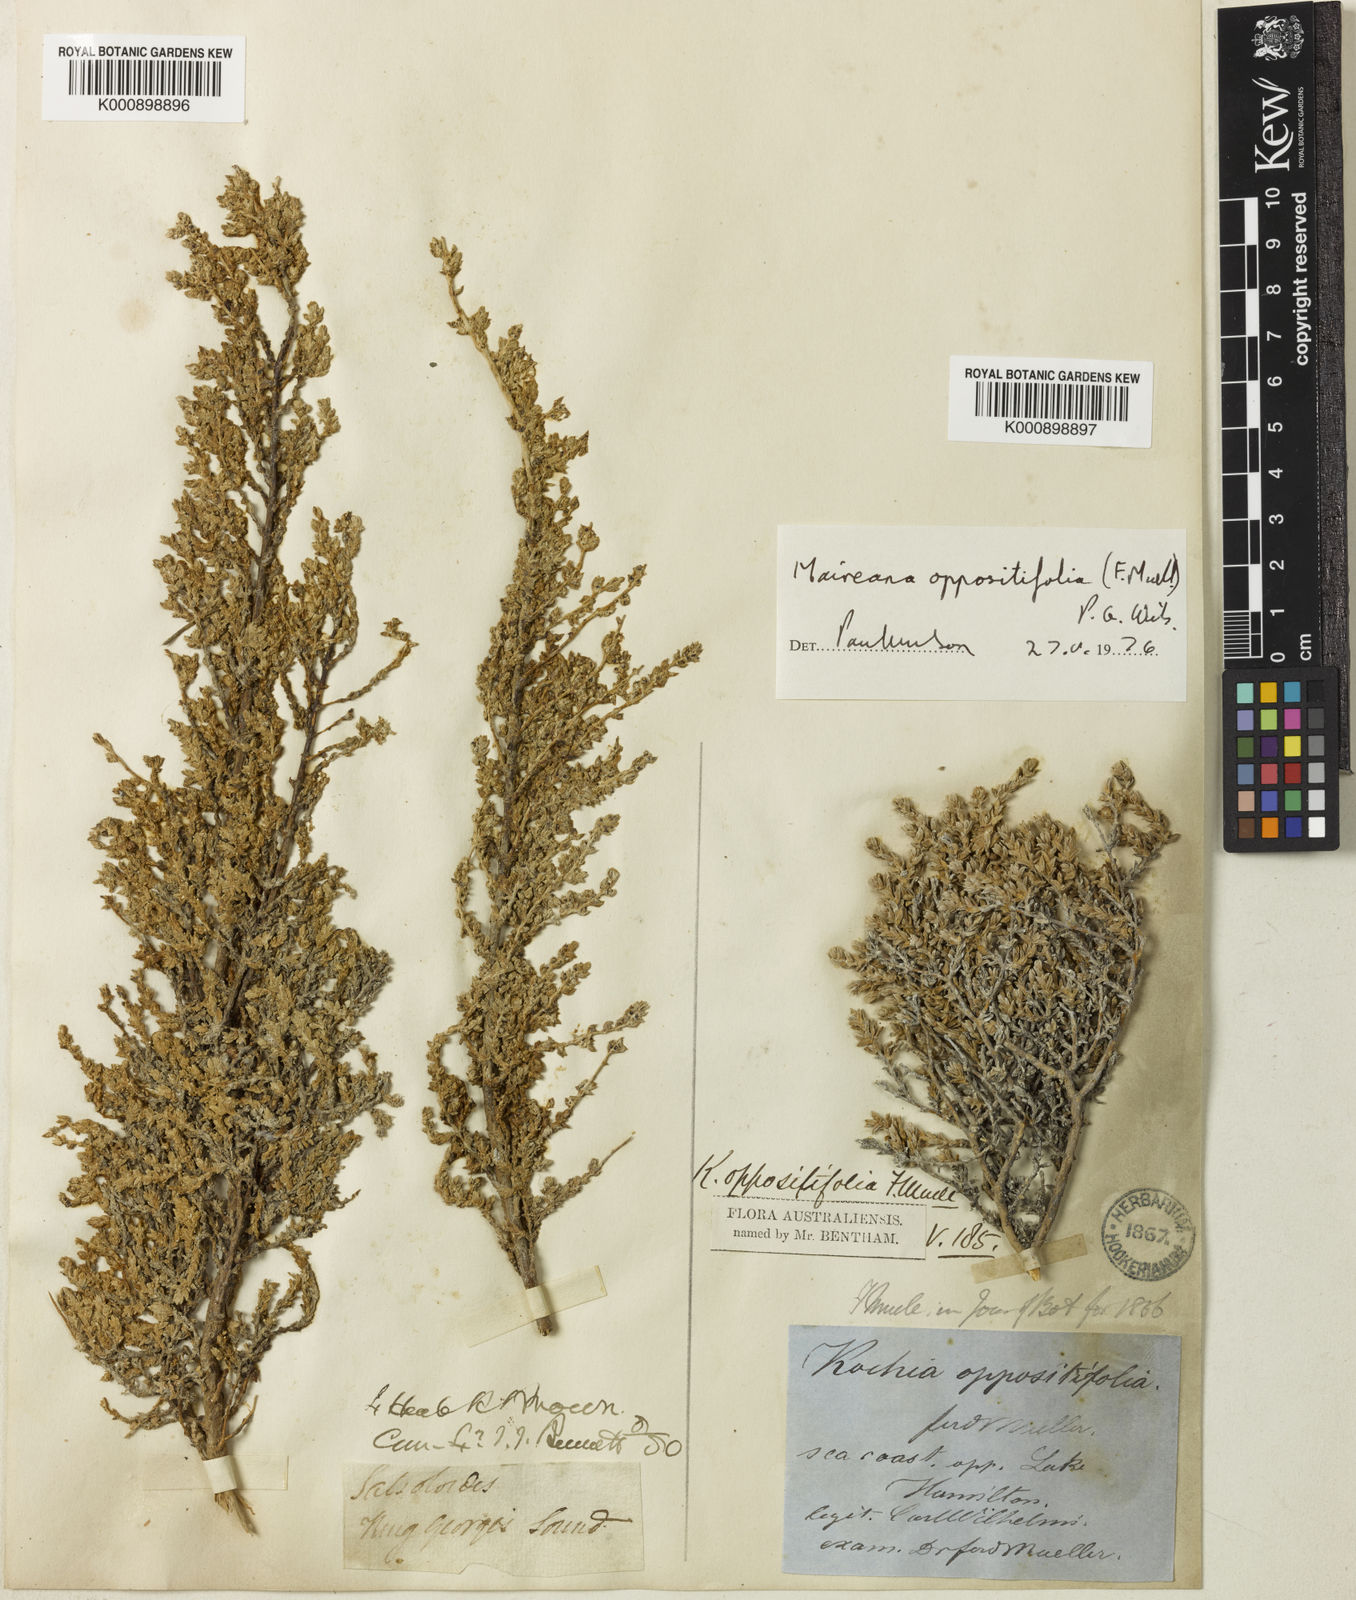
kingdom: Plantae
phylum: Tracheophyta
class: Magnoliopsida
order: Caryophyllales
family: Amaranthaceae
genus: Maireana
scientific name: Maireana oppositifolia
